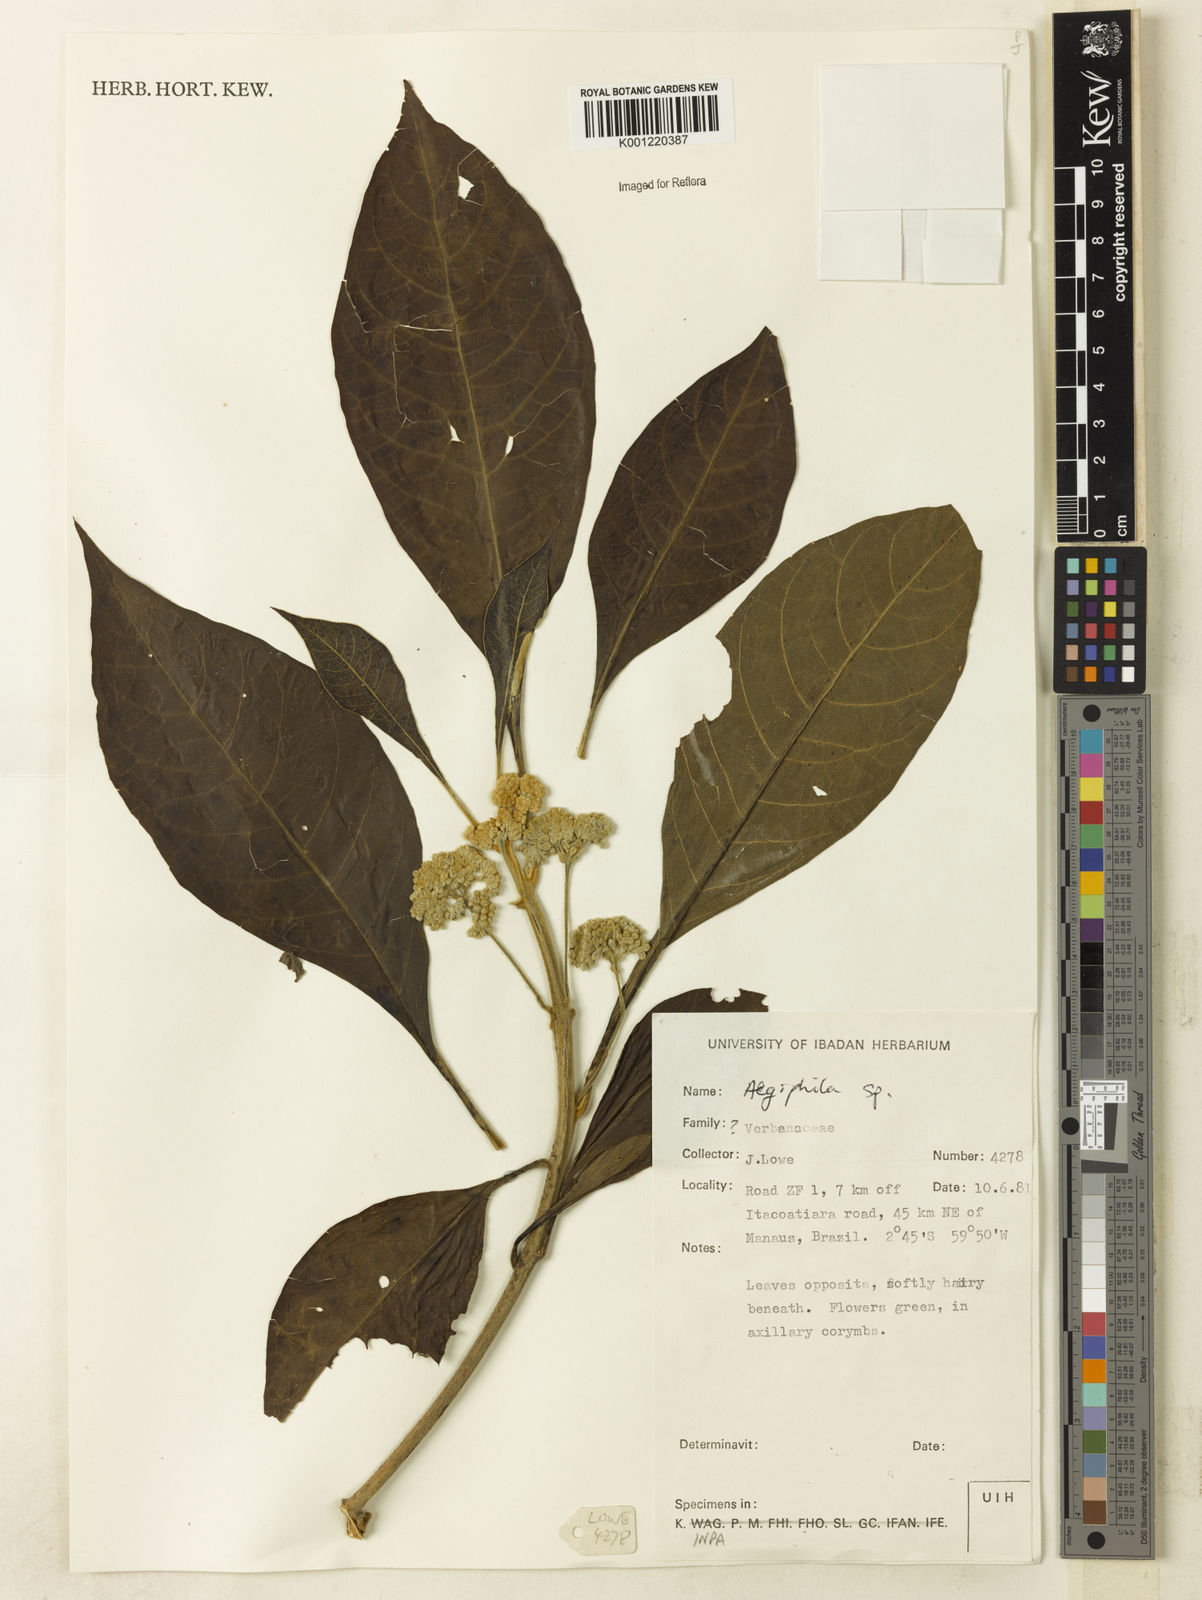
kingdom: Plantae
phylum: Tracheophyta
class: Magnoliopsida
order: Lamiales
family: Lamiaceae
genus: Aegiphila
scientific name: Aegiphila
